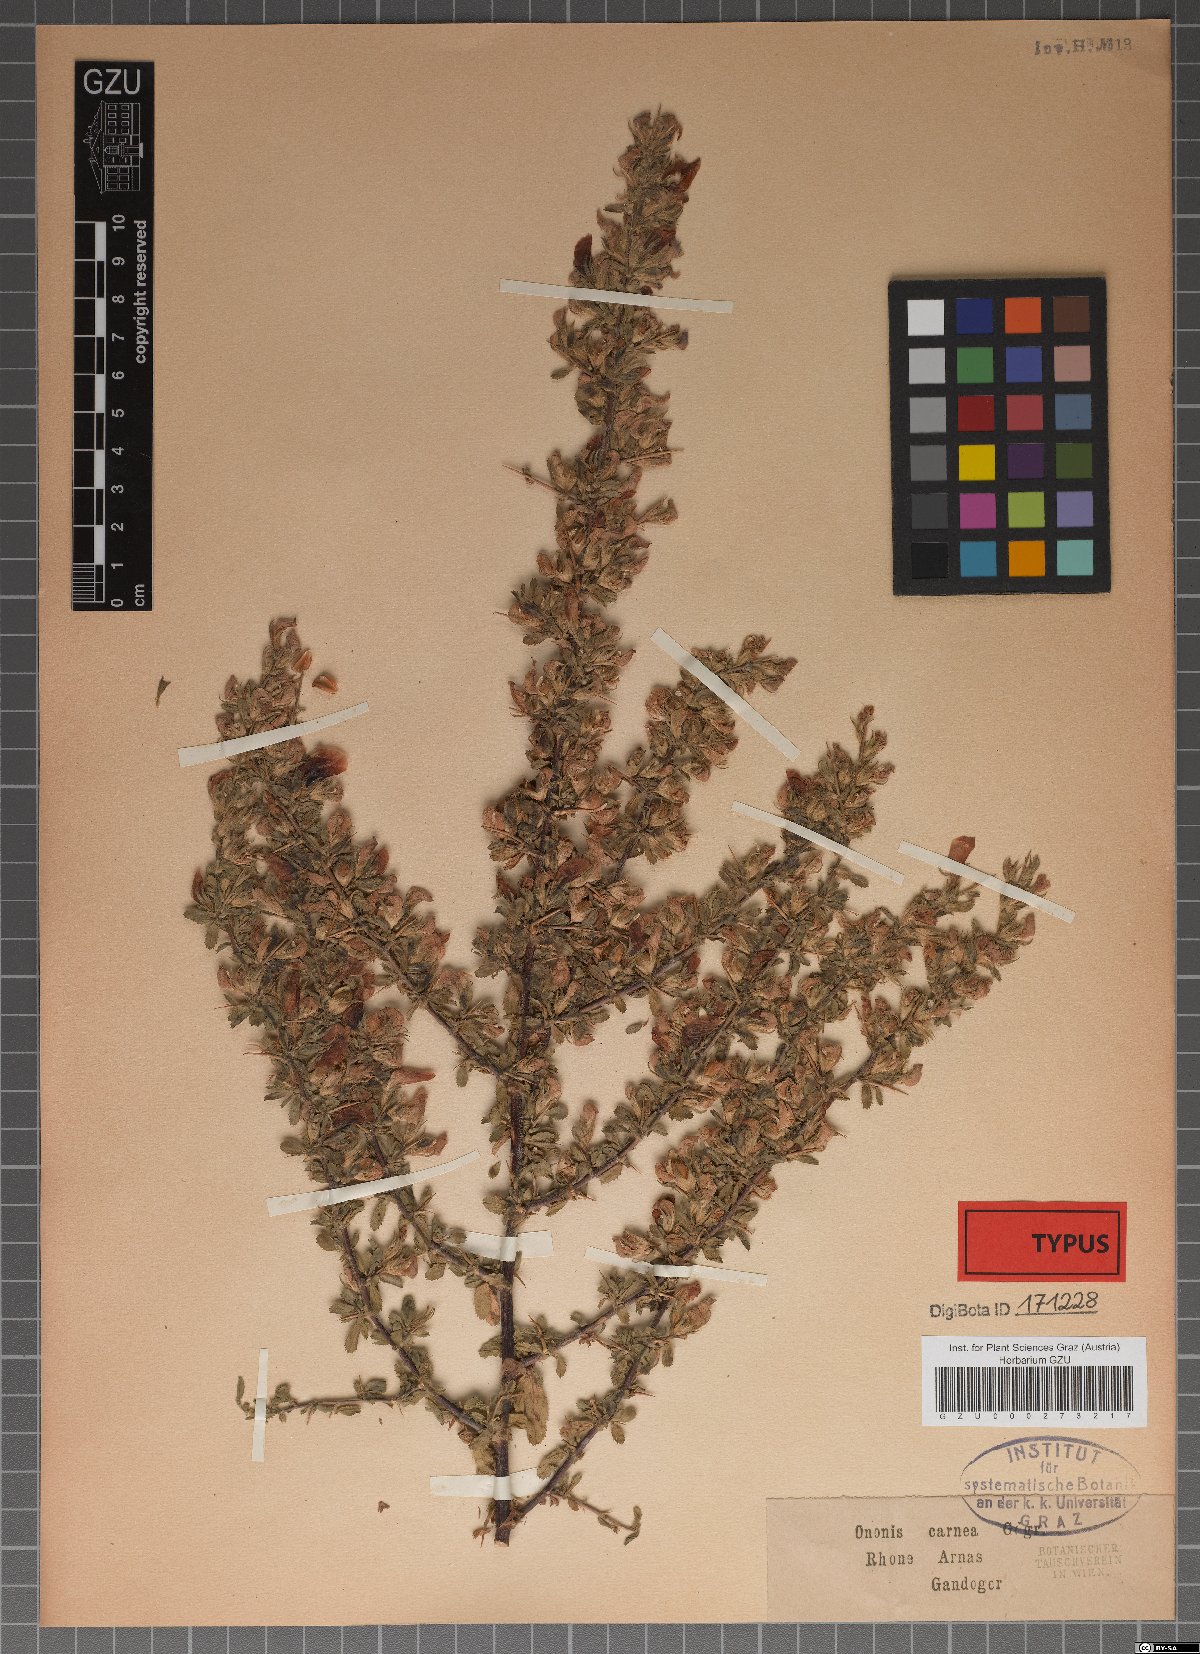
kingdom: Plantae
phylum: Tracheophyta
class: Magnoliopsida
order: Fabales
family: Fabaceae
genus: Ononis
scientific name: Ononis spinosa
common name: Spiny restharrow
